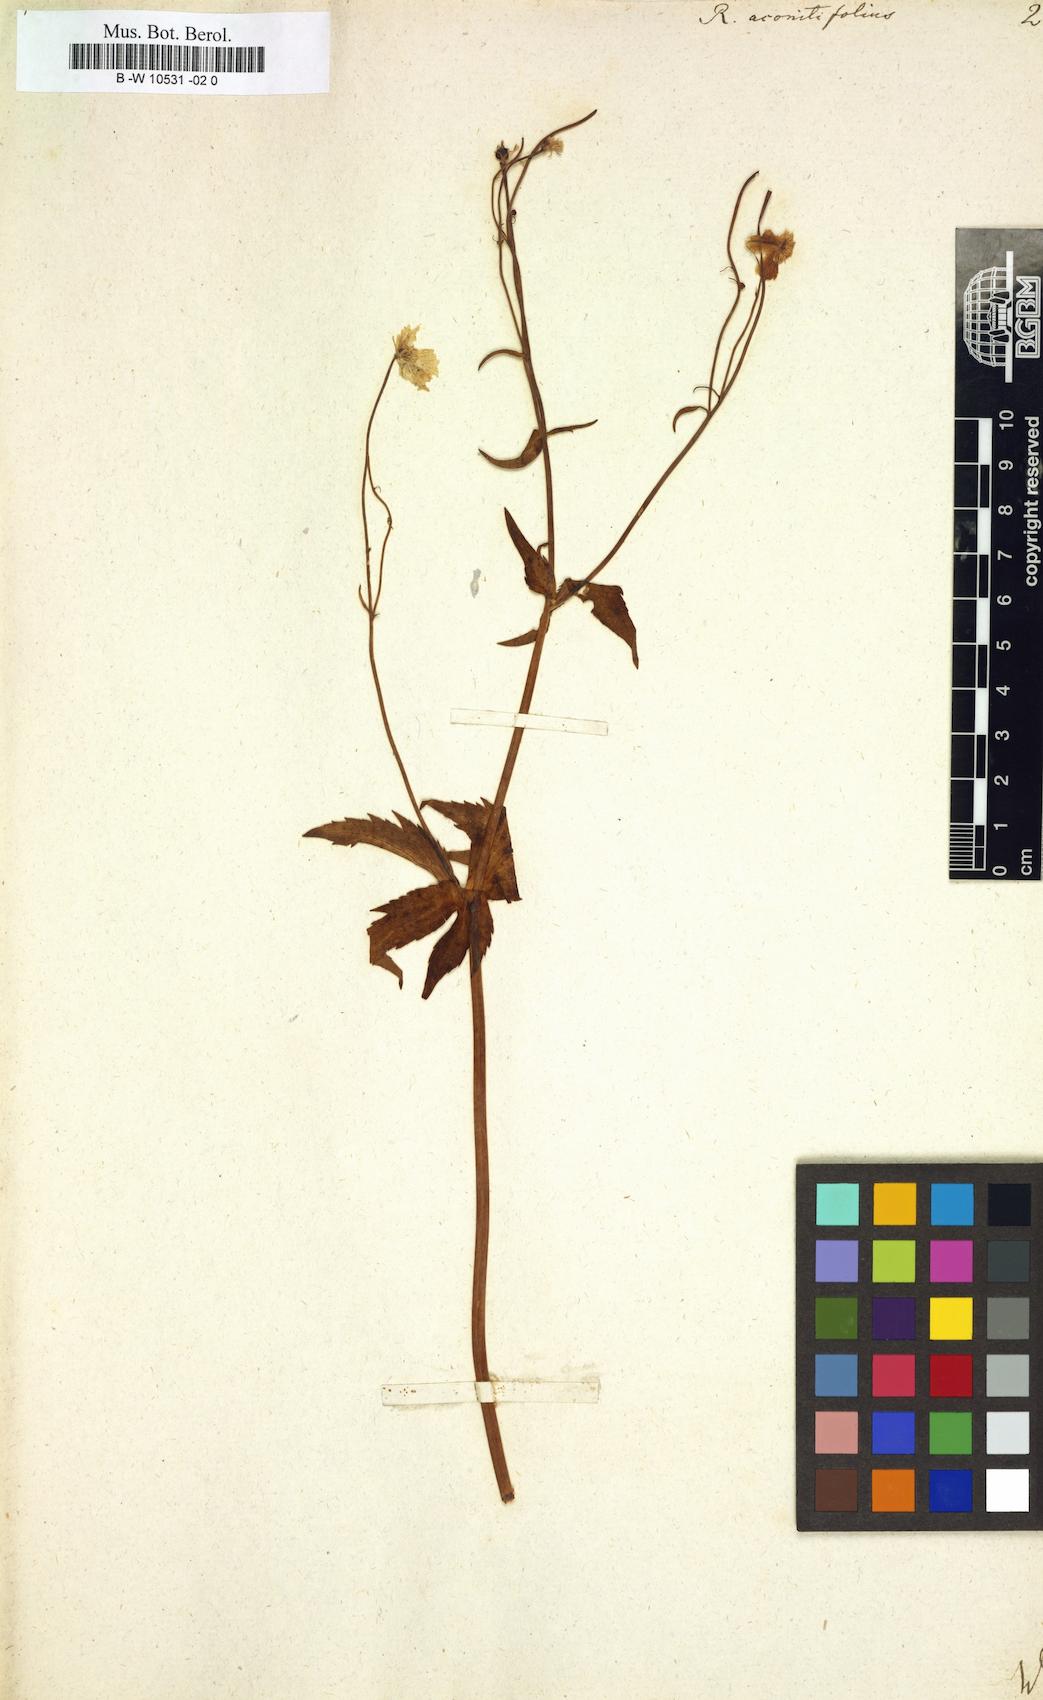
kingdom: Plantae
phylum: Tracheophyta
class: Magnoliopsida
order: Ranunculales
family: Ranunculaceae
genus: Ranunculus
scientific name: Ranunculus aconitifolius
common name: Aconite-leaved buttercup
